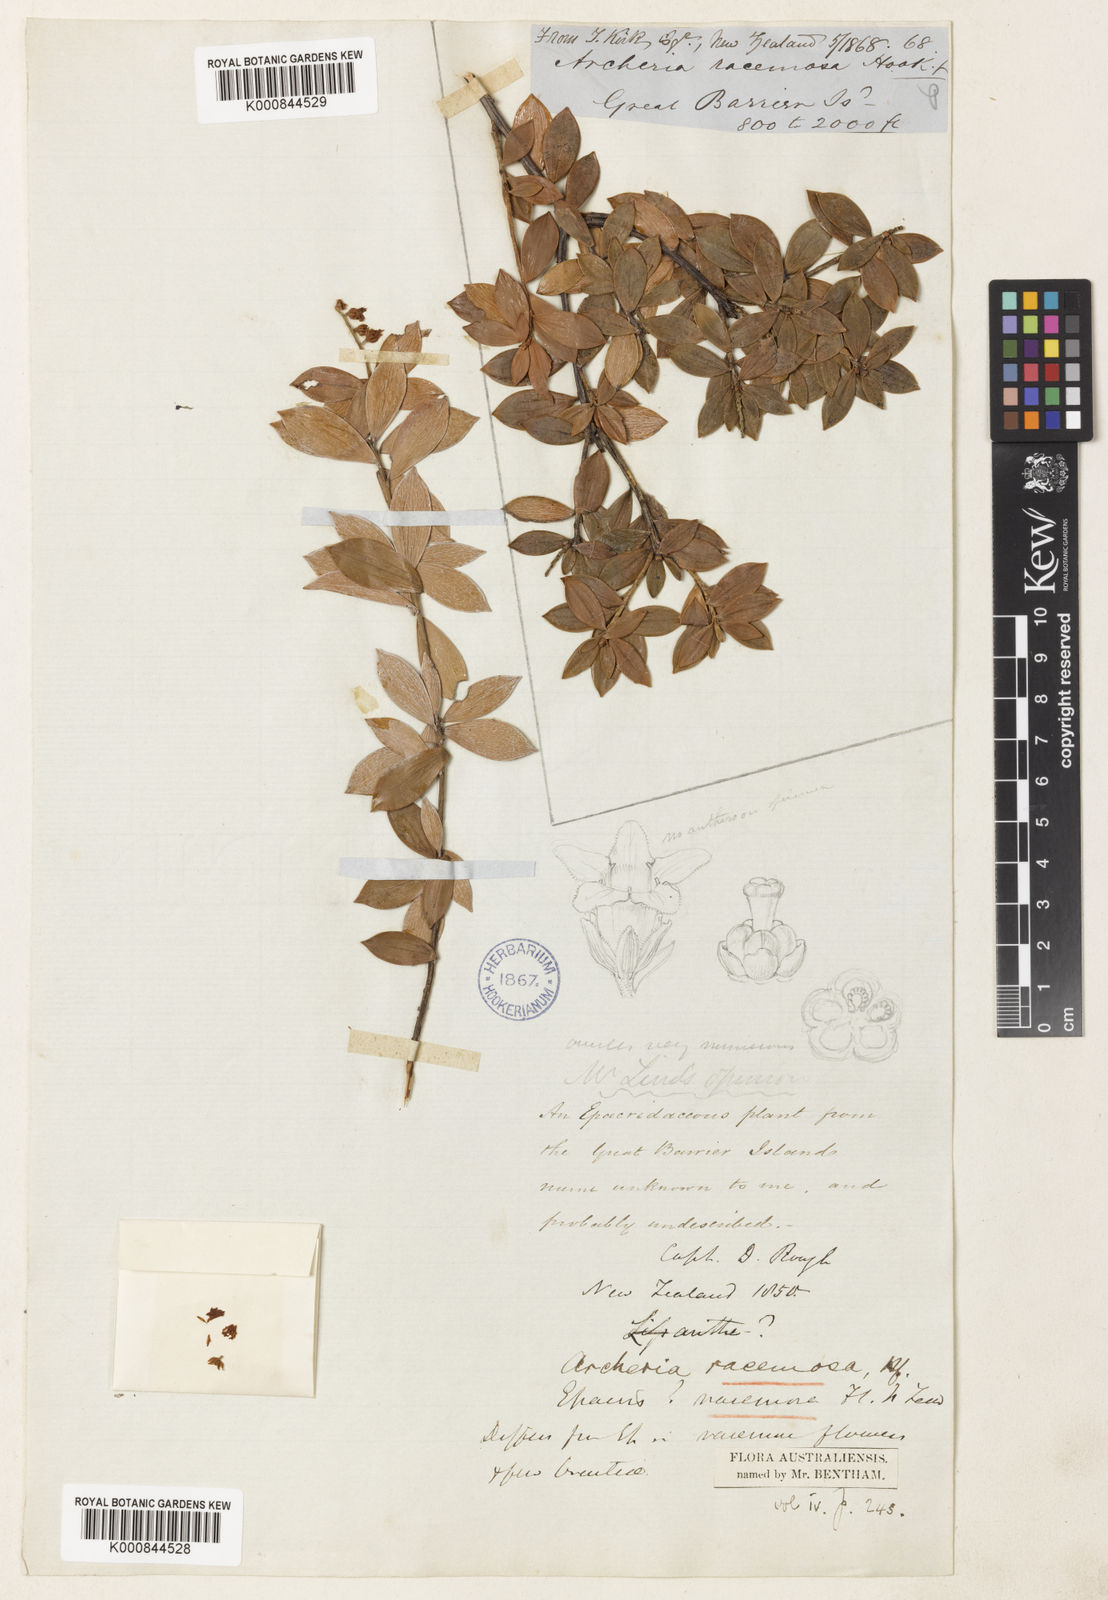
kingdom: Plantae
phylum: Tracheophyta
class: Magnoliopsida
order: Ericales
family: Ericaceae
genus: Archeria
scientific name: Archeria racemosa
